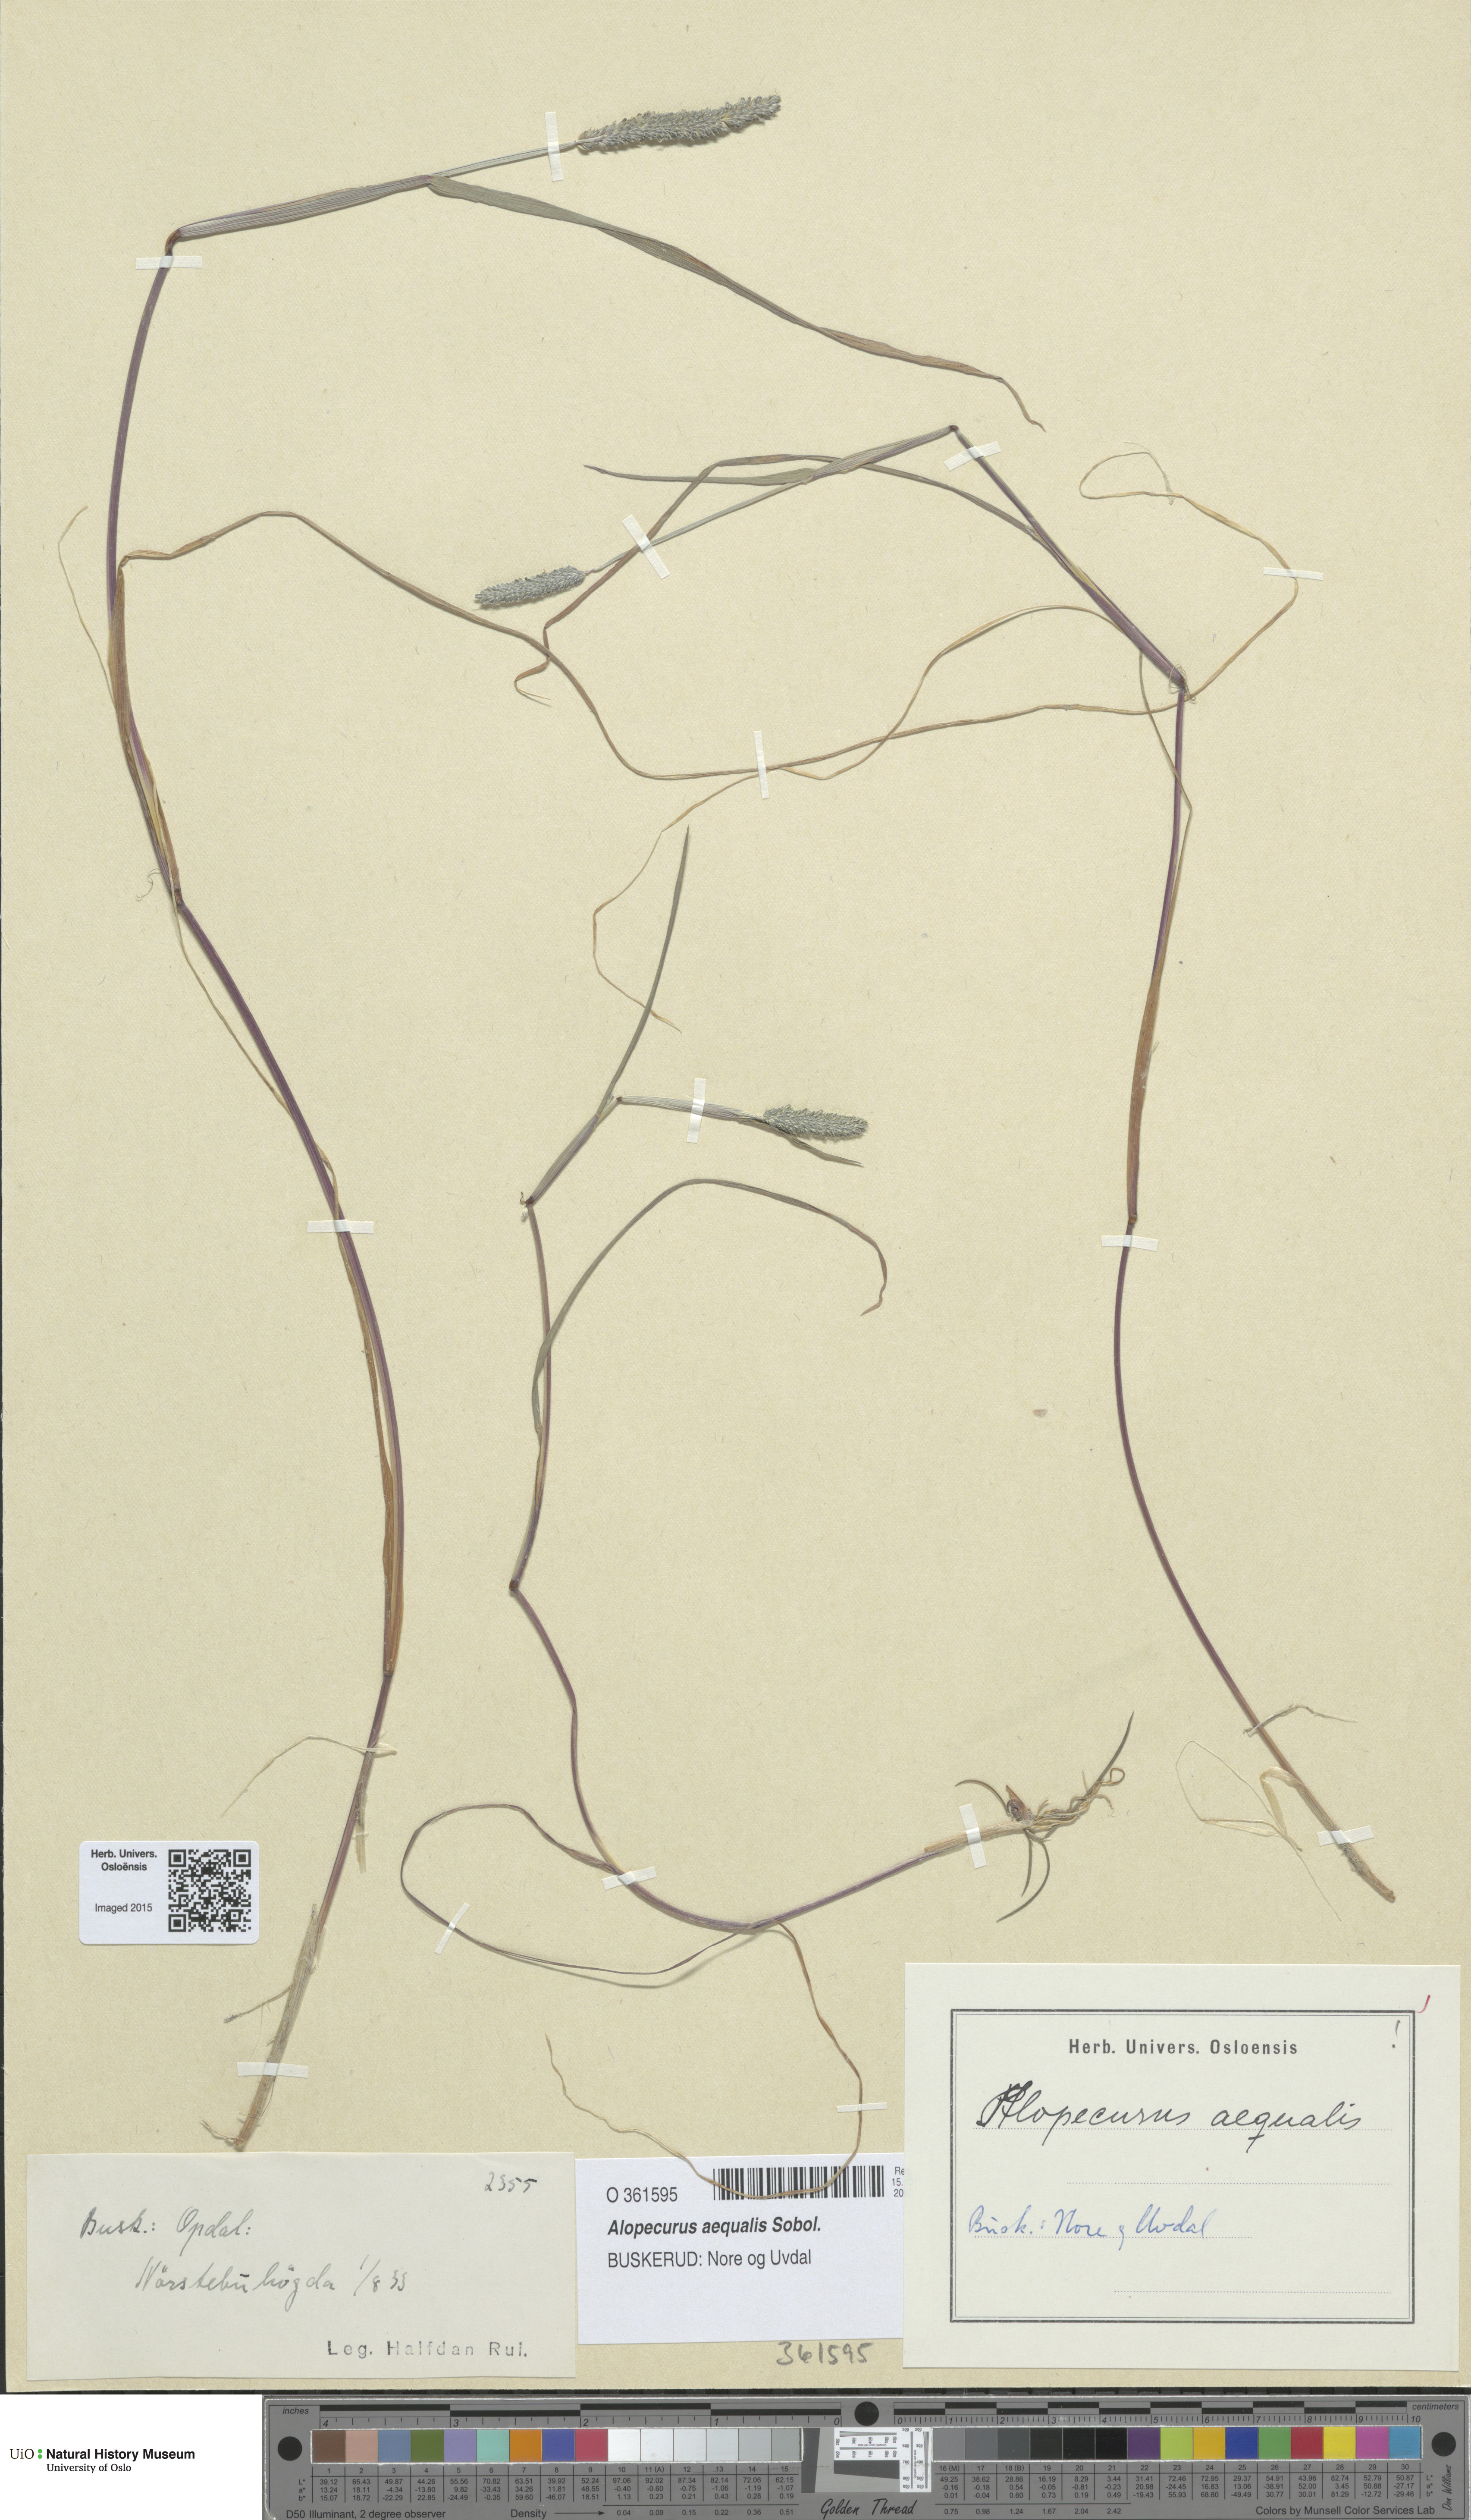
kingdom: Plantae
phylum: Tracheophyta
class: Liliopsida
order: Poales
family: Poaceae
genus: Alopecurus
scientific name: Alopecurus aequalis
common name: Orange foxtail
